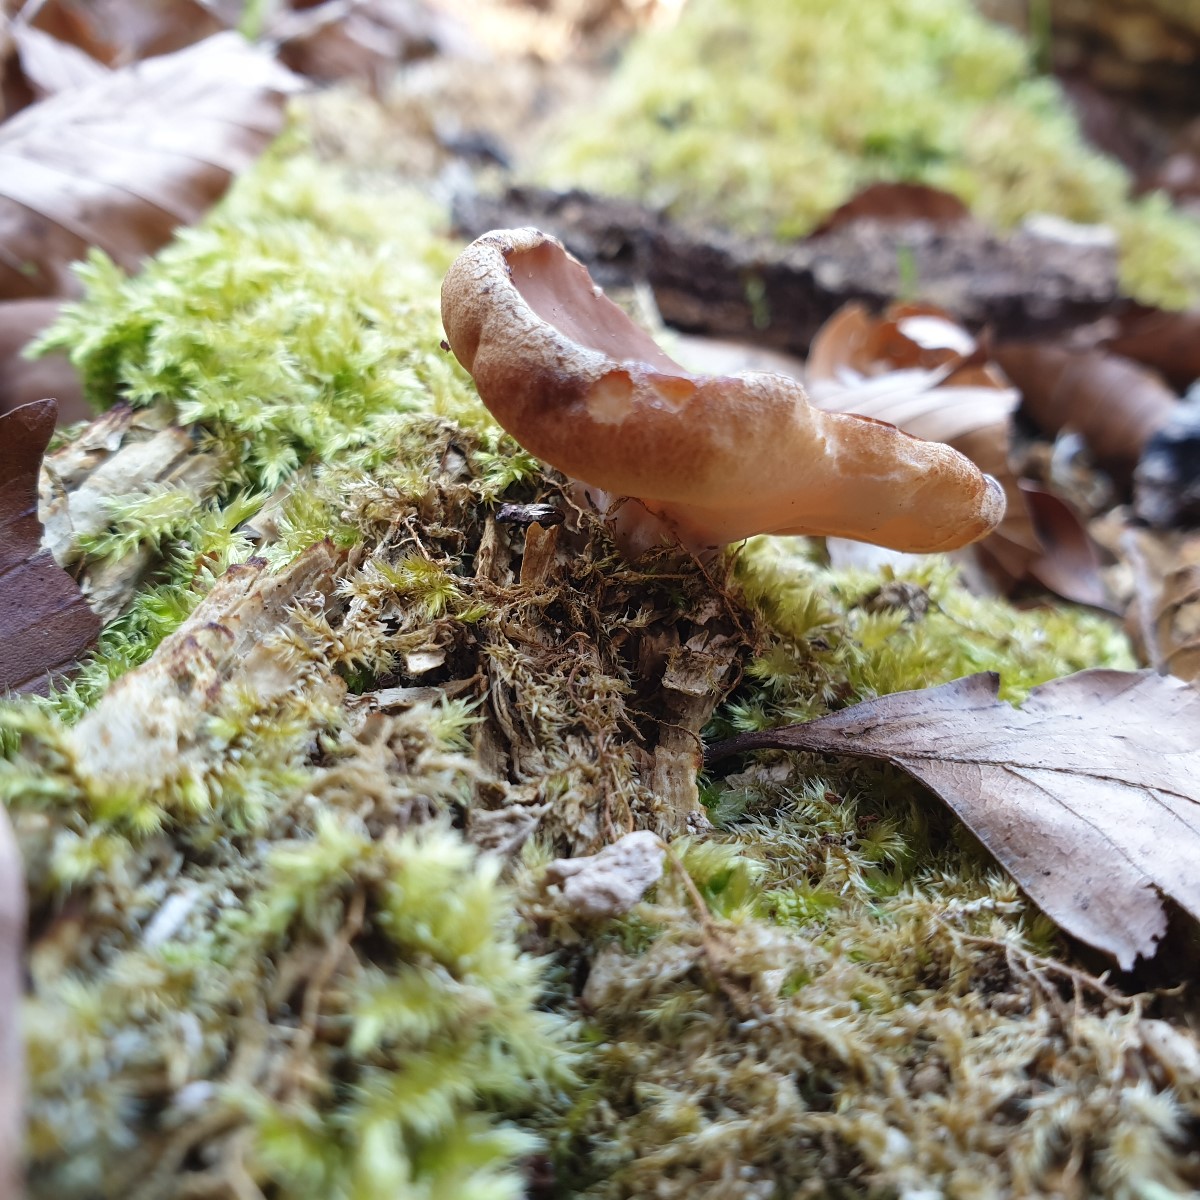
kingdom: Fungi
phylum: Ascomycota
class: Pezizomycetes
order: Pezizales
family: Discinaceae
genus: Gyromitra
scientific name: Gyromitra parma
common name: flad stenmorkel
